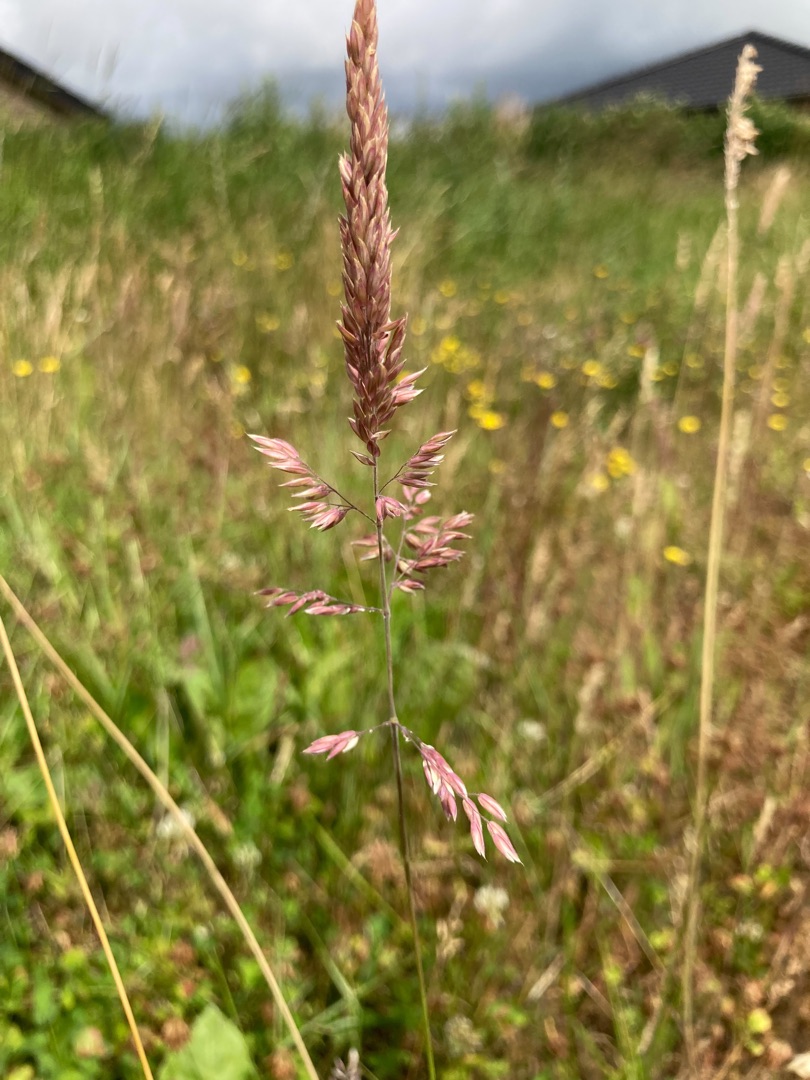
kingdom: Plantae
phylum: Tracheophyta
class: Liliopsida
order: Poales
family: Poaceae
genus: Holcus
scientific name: Holcus lanatus
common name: Fløjlsgræs
